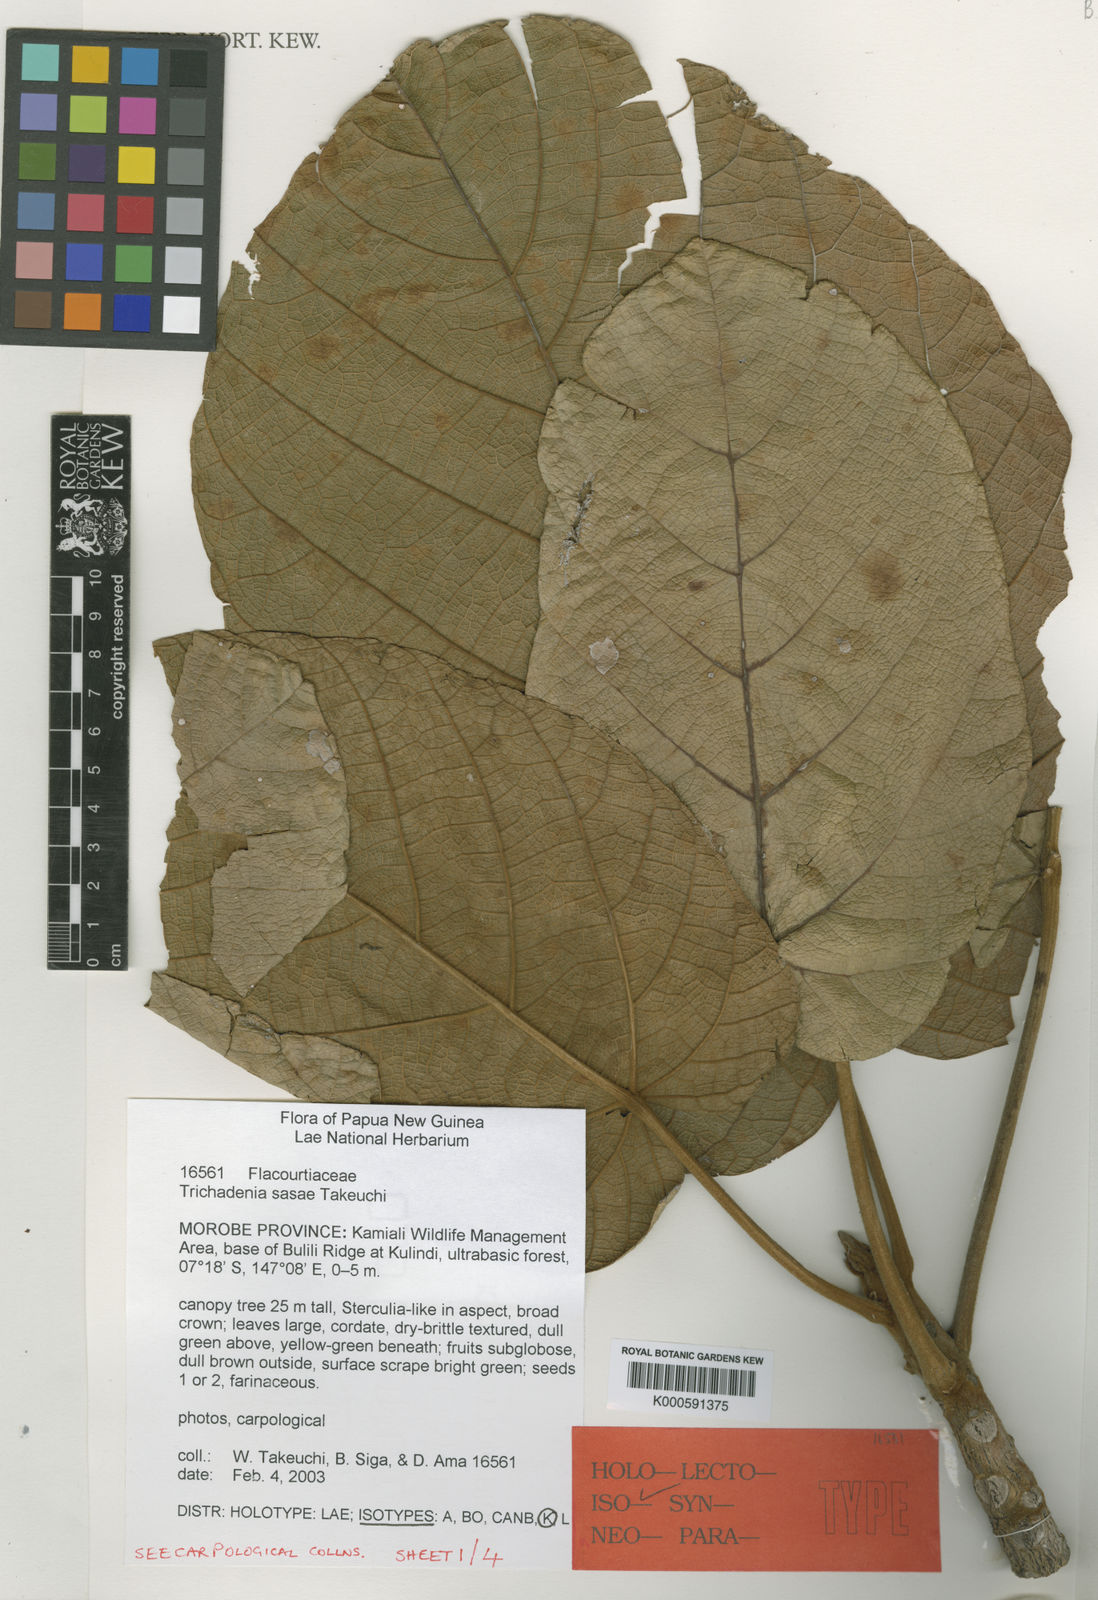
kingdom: Plantae
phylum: Tracheophyta
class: Magnoliopsida
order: Malpighiales
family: Achariaceae
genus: Trichadenia
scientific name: Trichadenia sasae
